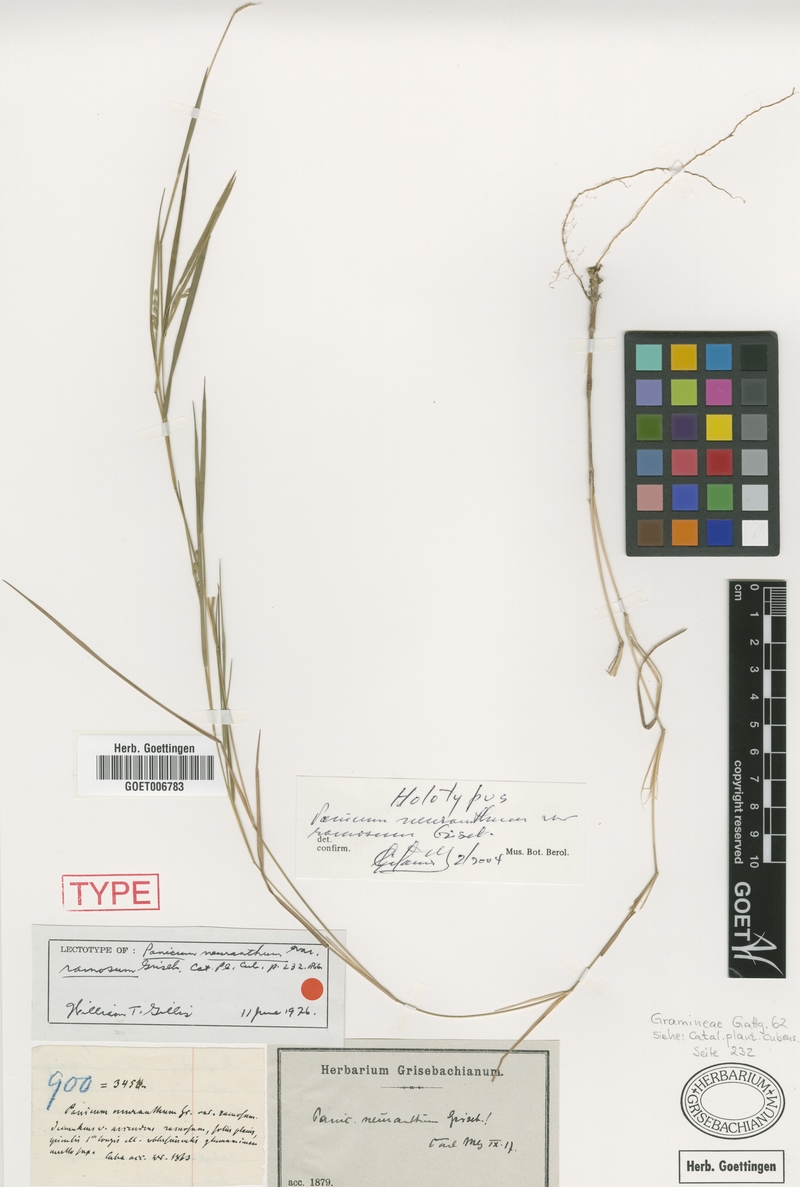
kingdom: Plantae
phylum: Tracheophyta
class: Liliopsida
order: Poales
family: Poaceae
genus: Dichanthelium
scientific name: Dichanthelium aciculare
